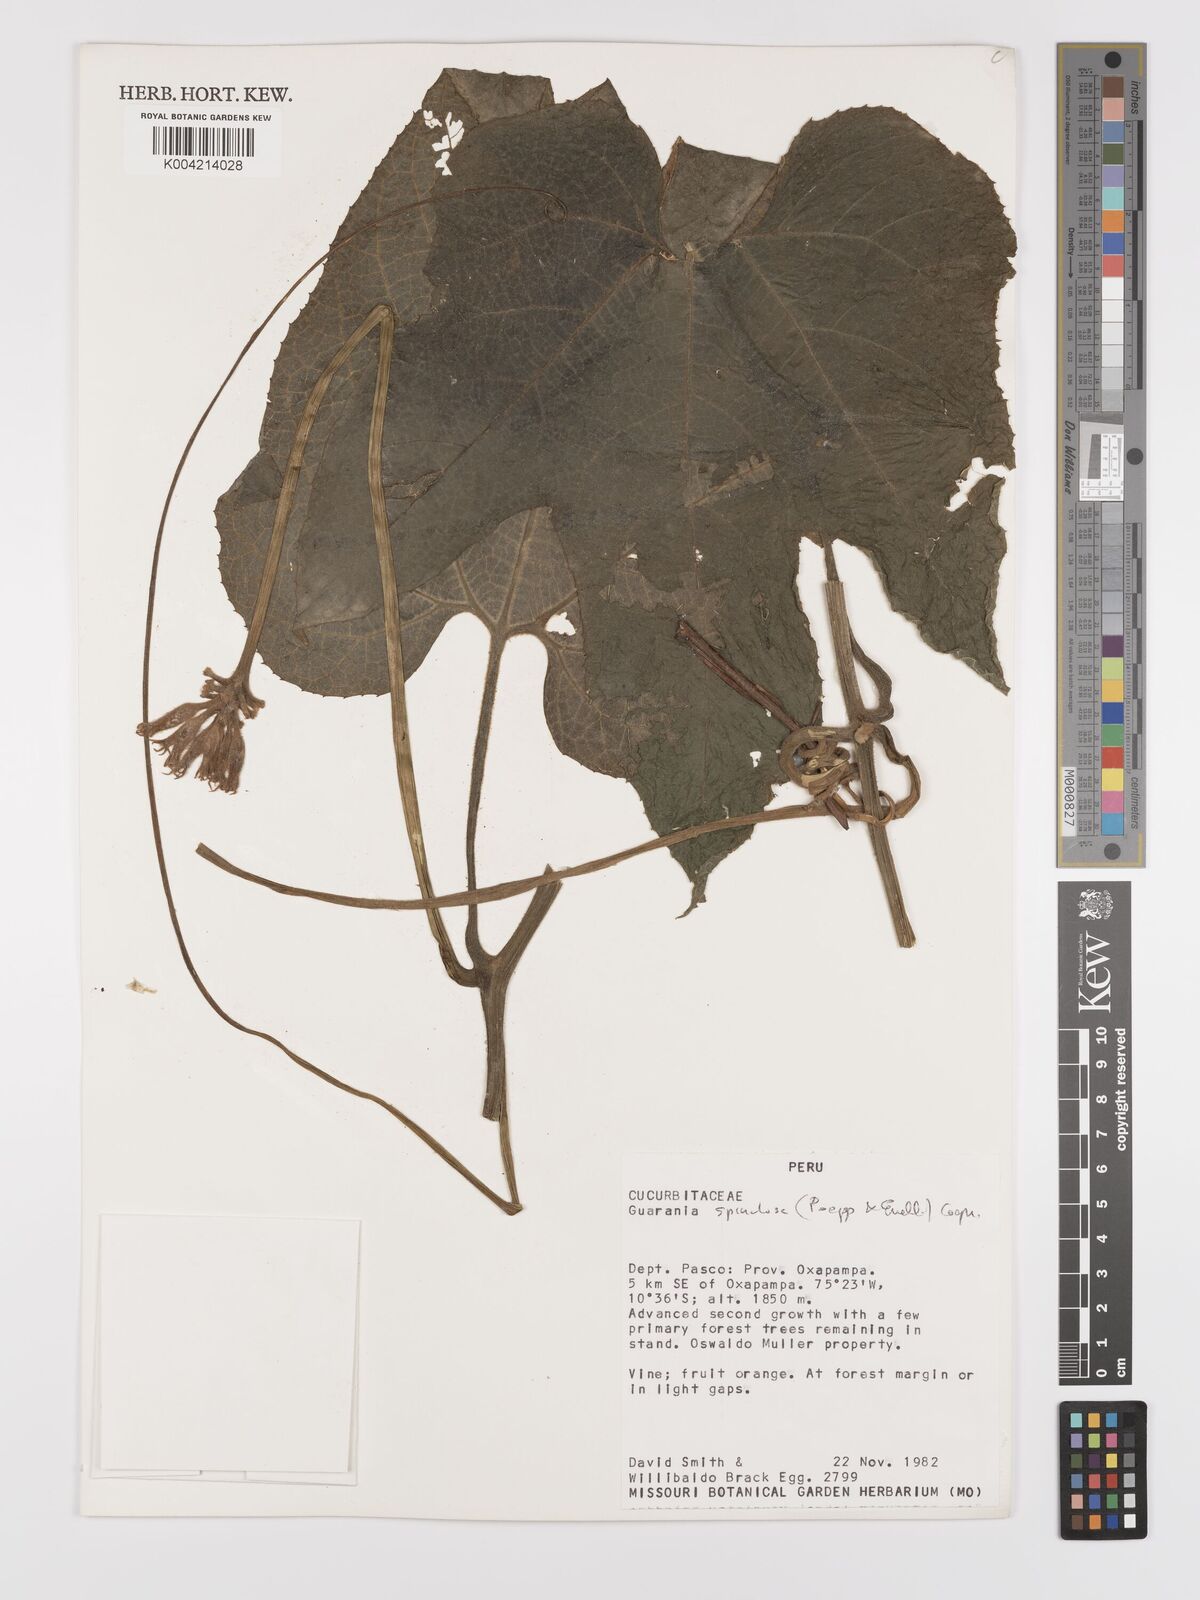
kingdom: Plantae
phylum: Tracheophyta
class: Magnoliopsida
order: Cucurbitales
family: Cucurbitaceae
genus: Gurania
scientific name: Gurania lobata
